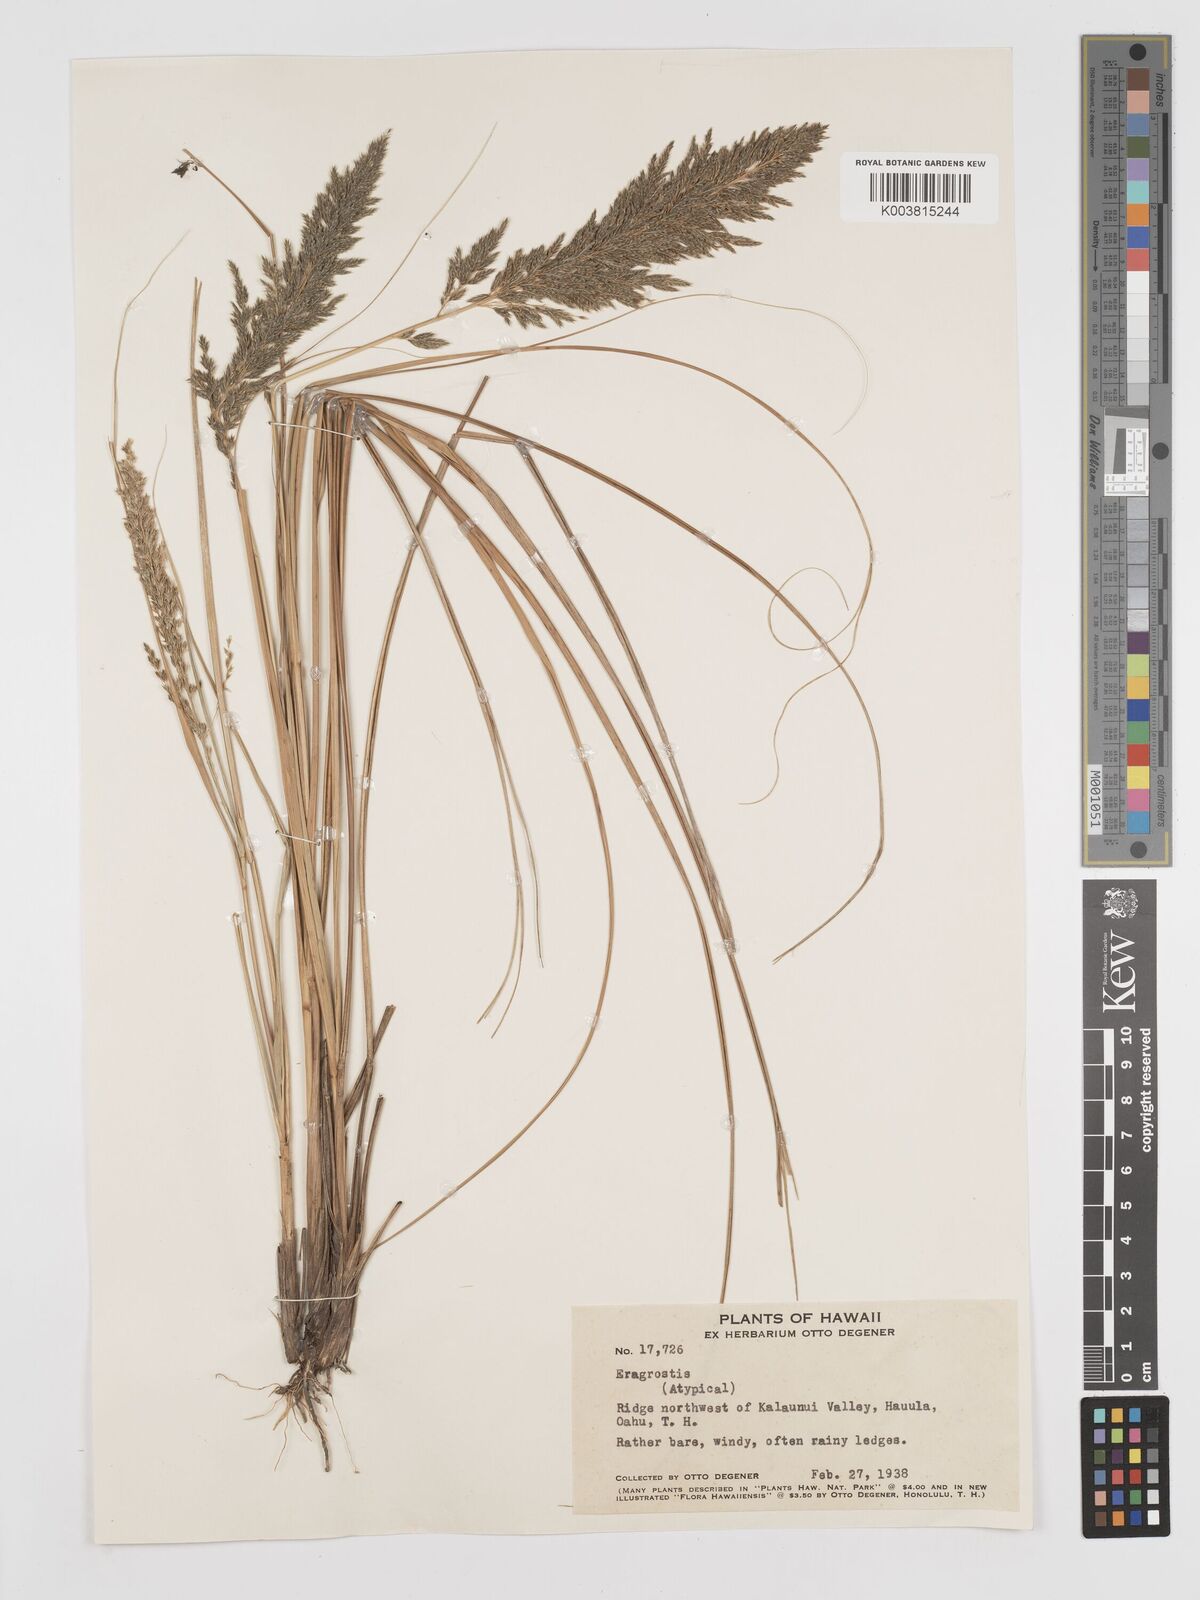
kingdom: Plantae
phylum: Tracheophyta
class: Liliopsida
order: Poales
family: Poaceae
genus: Eragrostis
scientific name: Eragrostis variabilis
